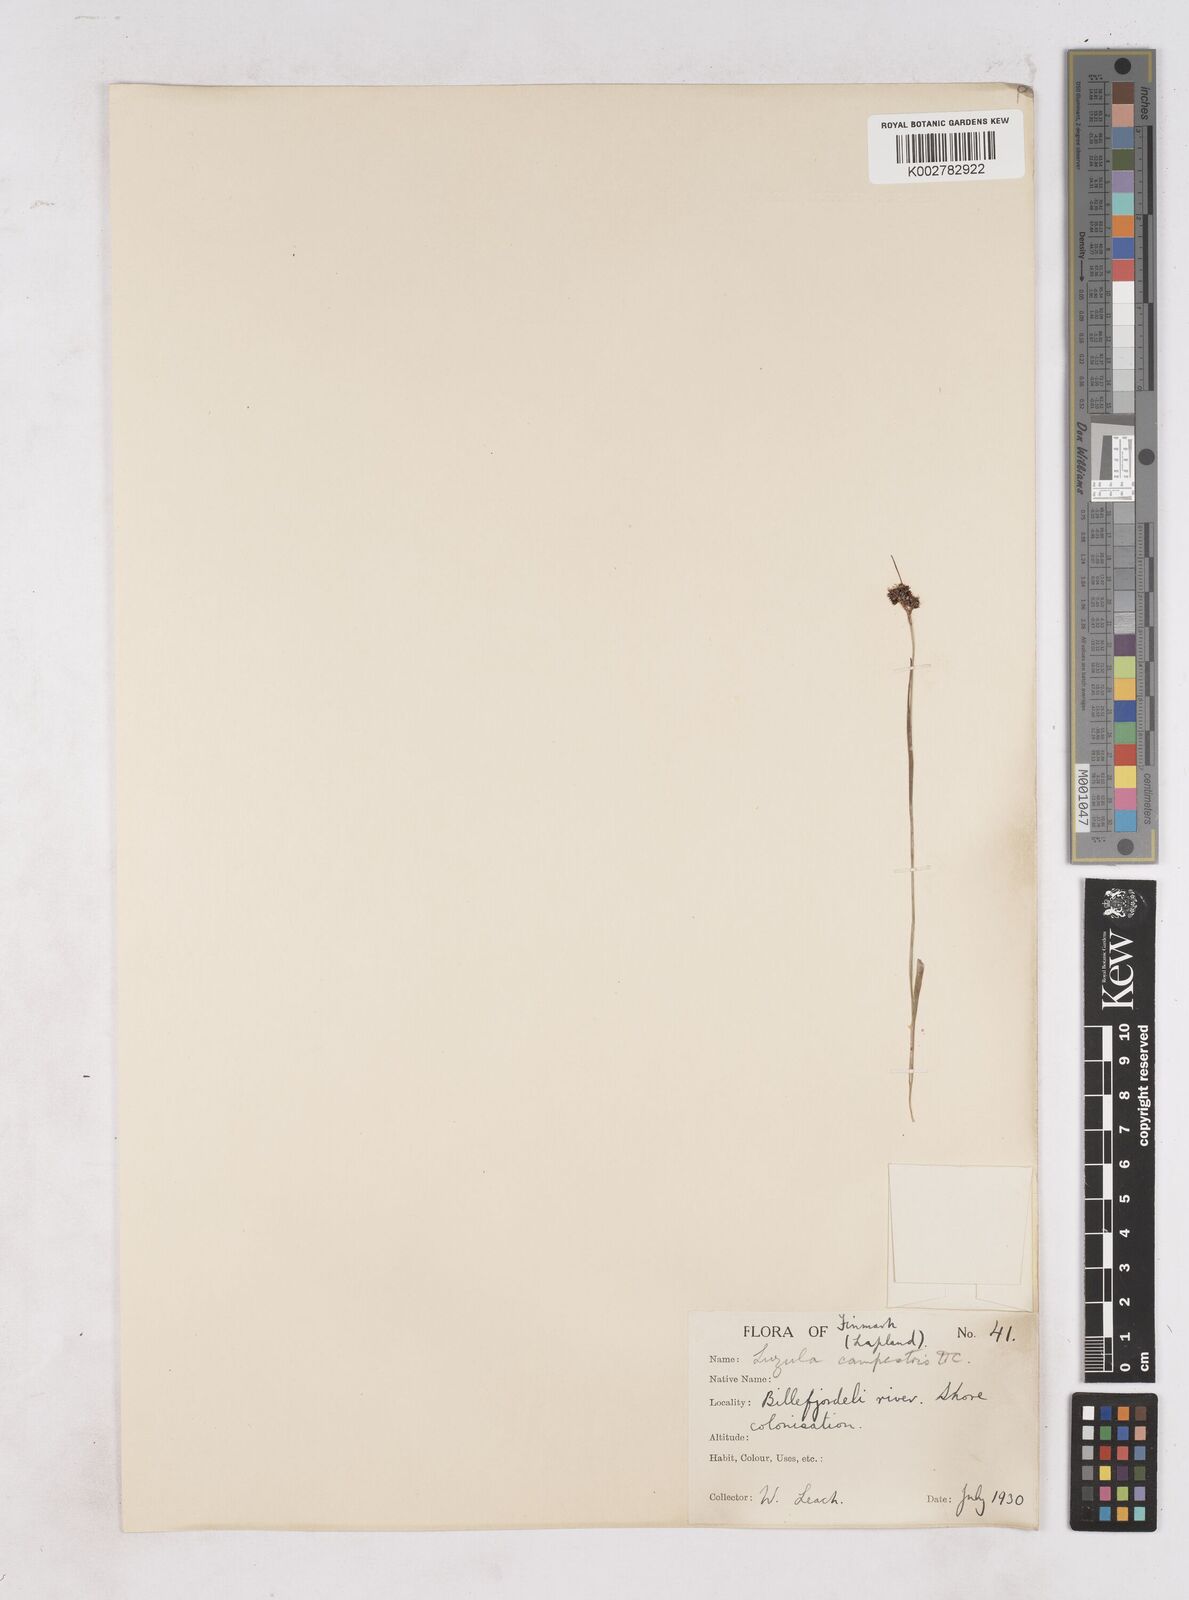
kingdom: Plantae
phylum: Tracheophyta
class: Liliopsida
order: Poales
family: Juncaceae
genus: Luzula
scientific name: Luzula campestris
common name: Field wood-rush
